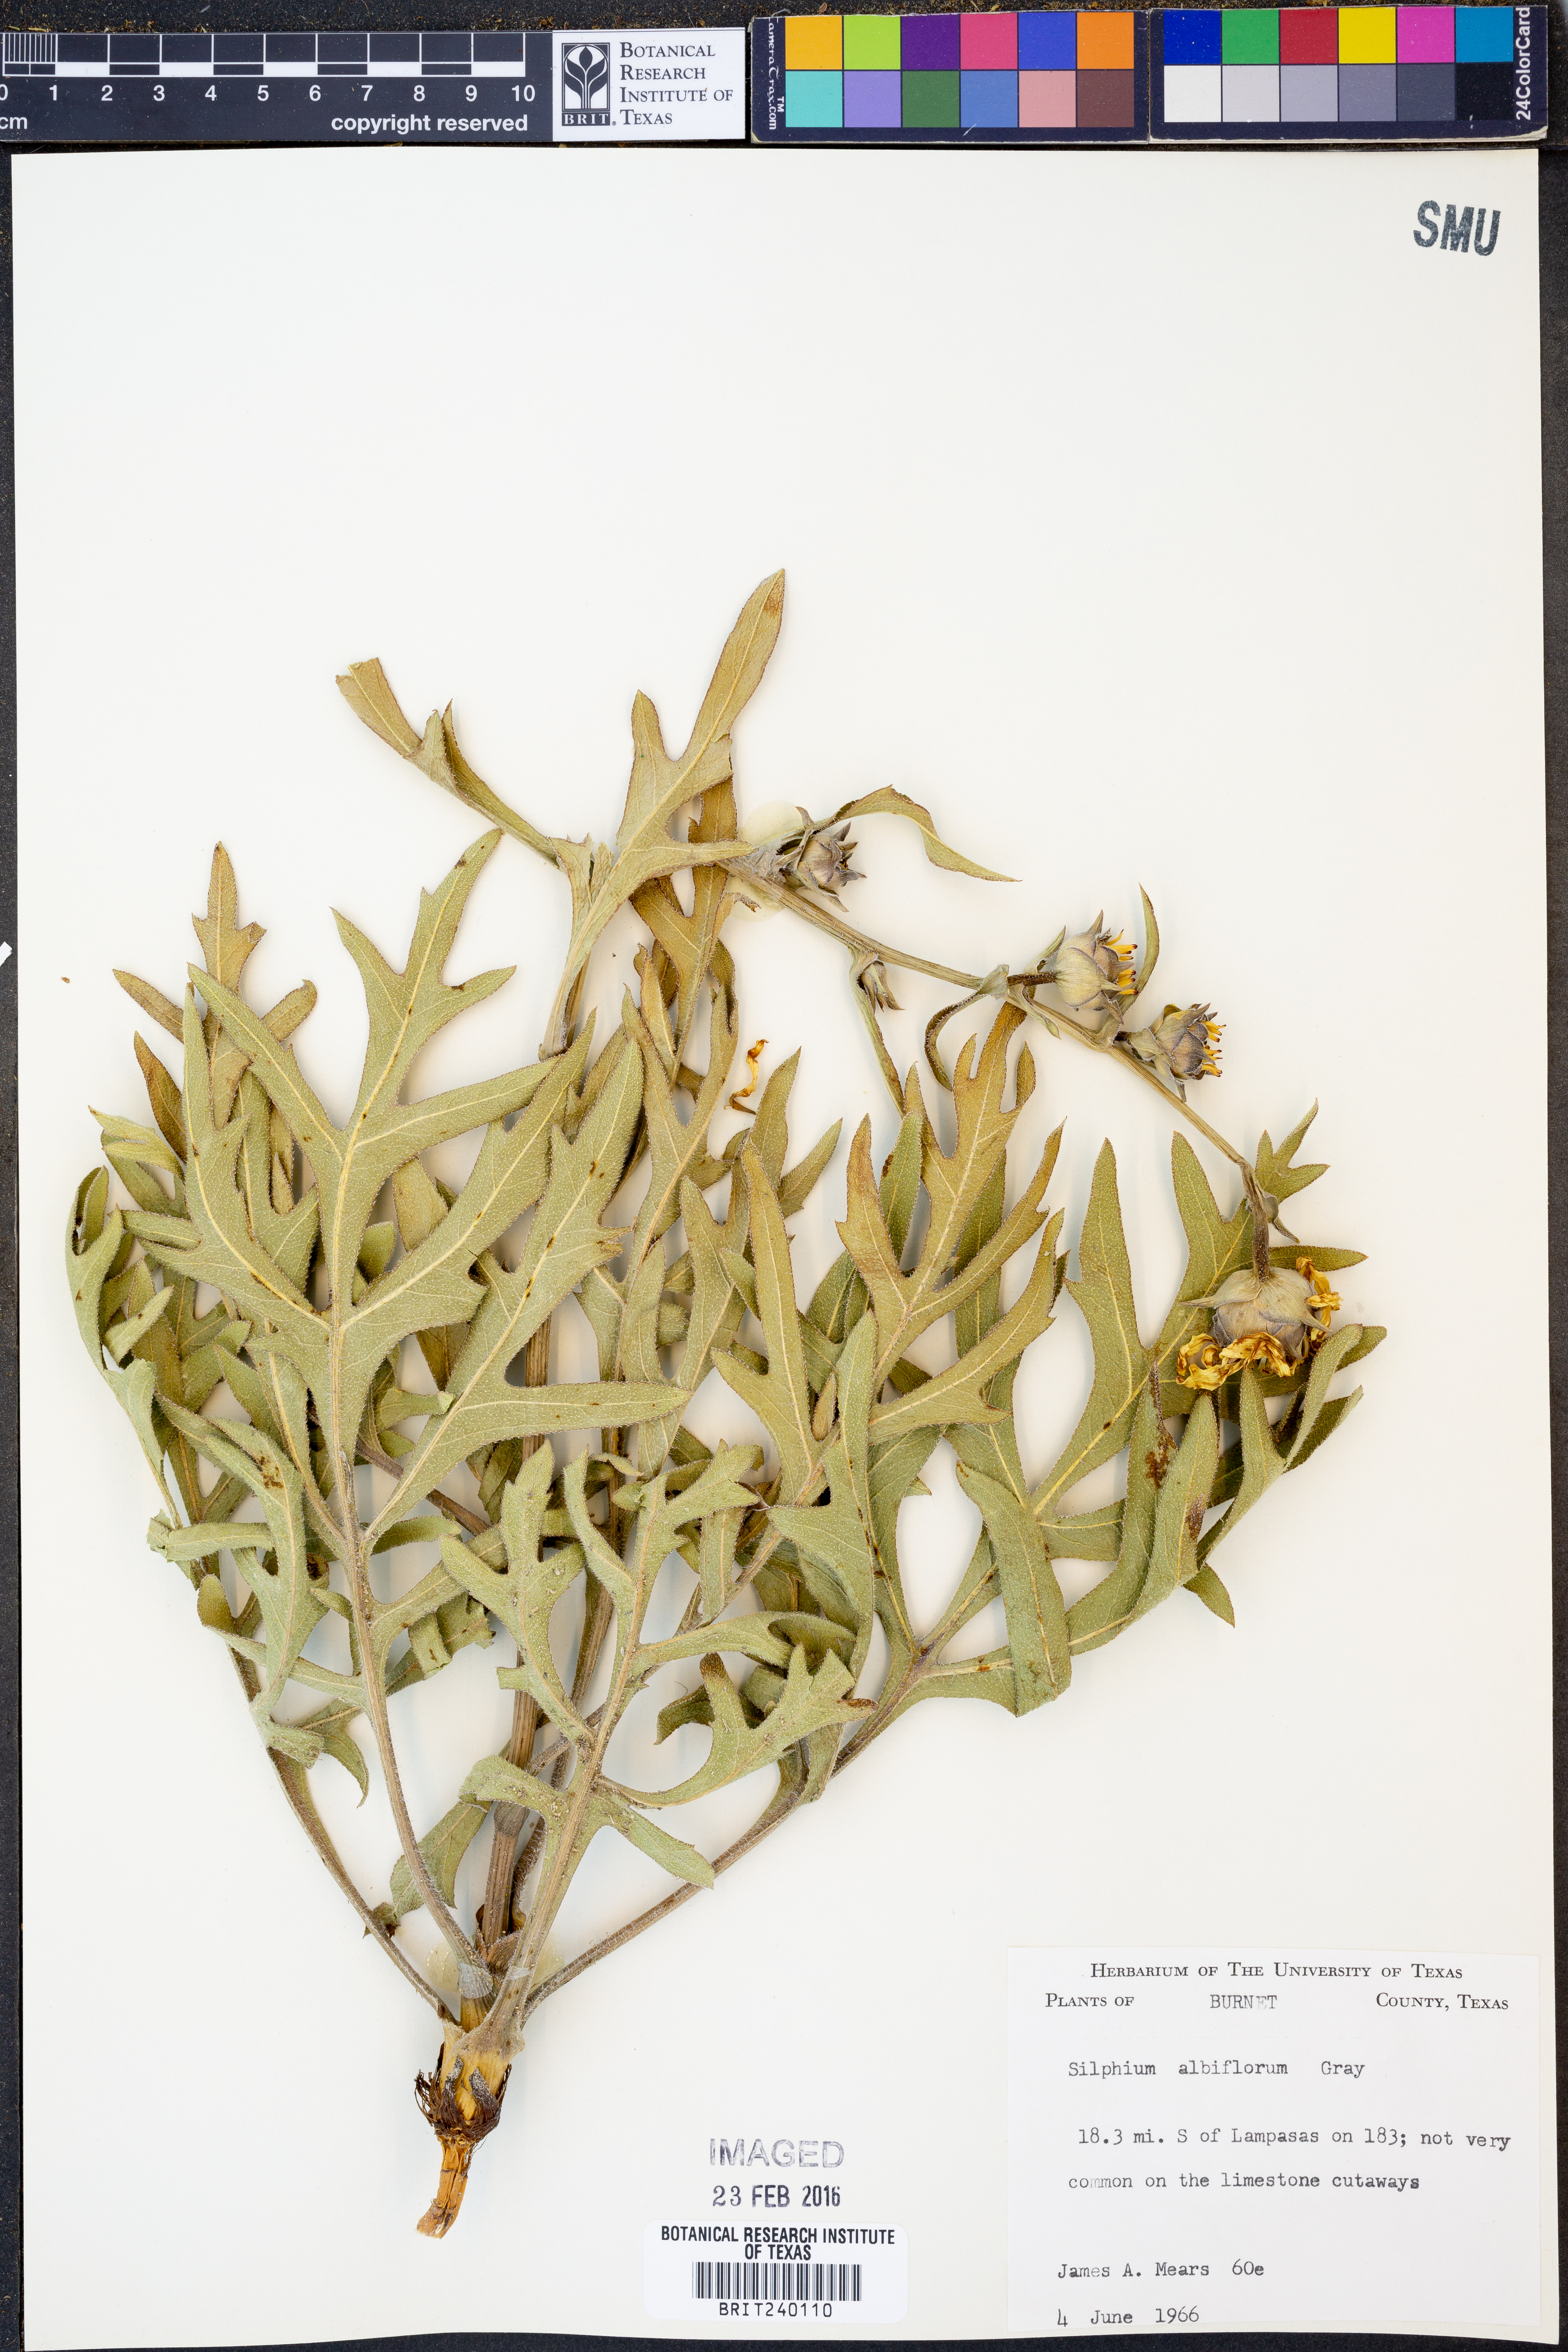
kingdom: Plantae
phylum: Tracheophyta
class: Magnoliopsida
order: Asterales
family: Asteraceae
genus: Silphium
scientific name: Silphium albiflorum
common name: White rosinweed
